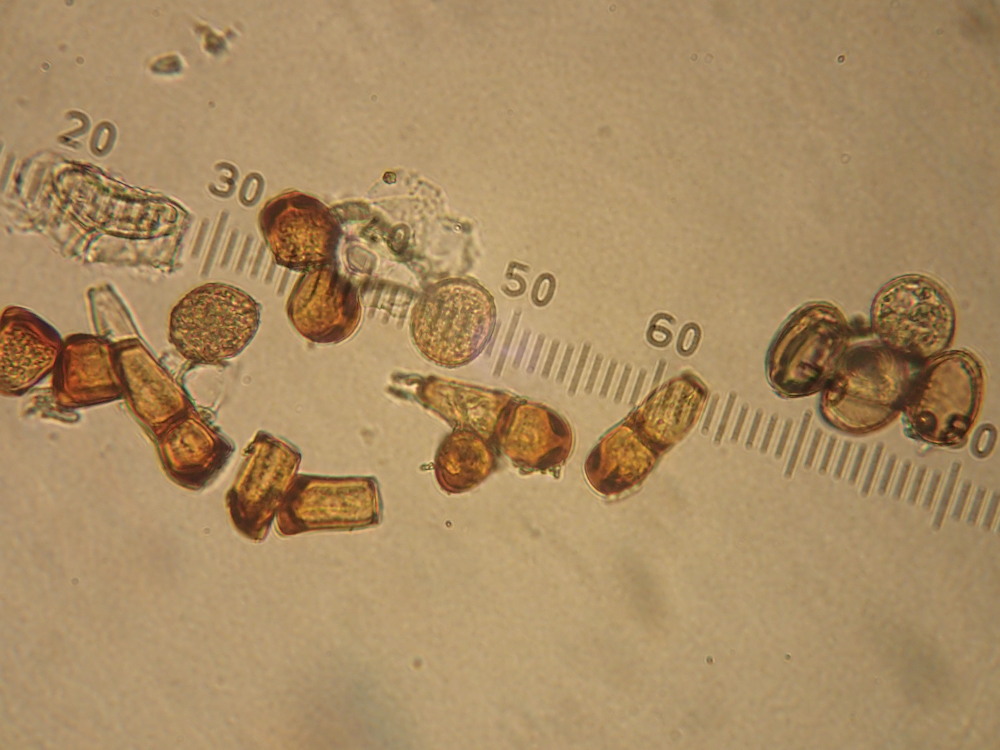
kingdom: Fungi
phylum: Basidiomycota
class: Pucciniomycetes
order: Pucciniales
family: Pucciniaceae
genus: Puccinia
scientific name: Puccinia polygoni-amphibii
